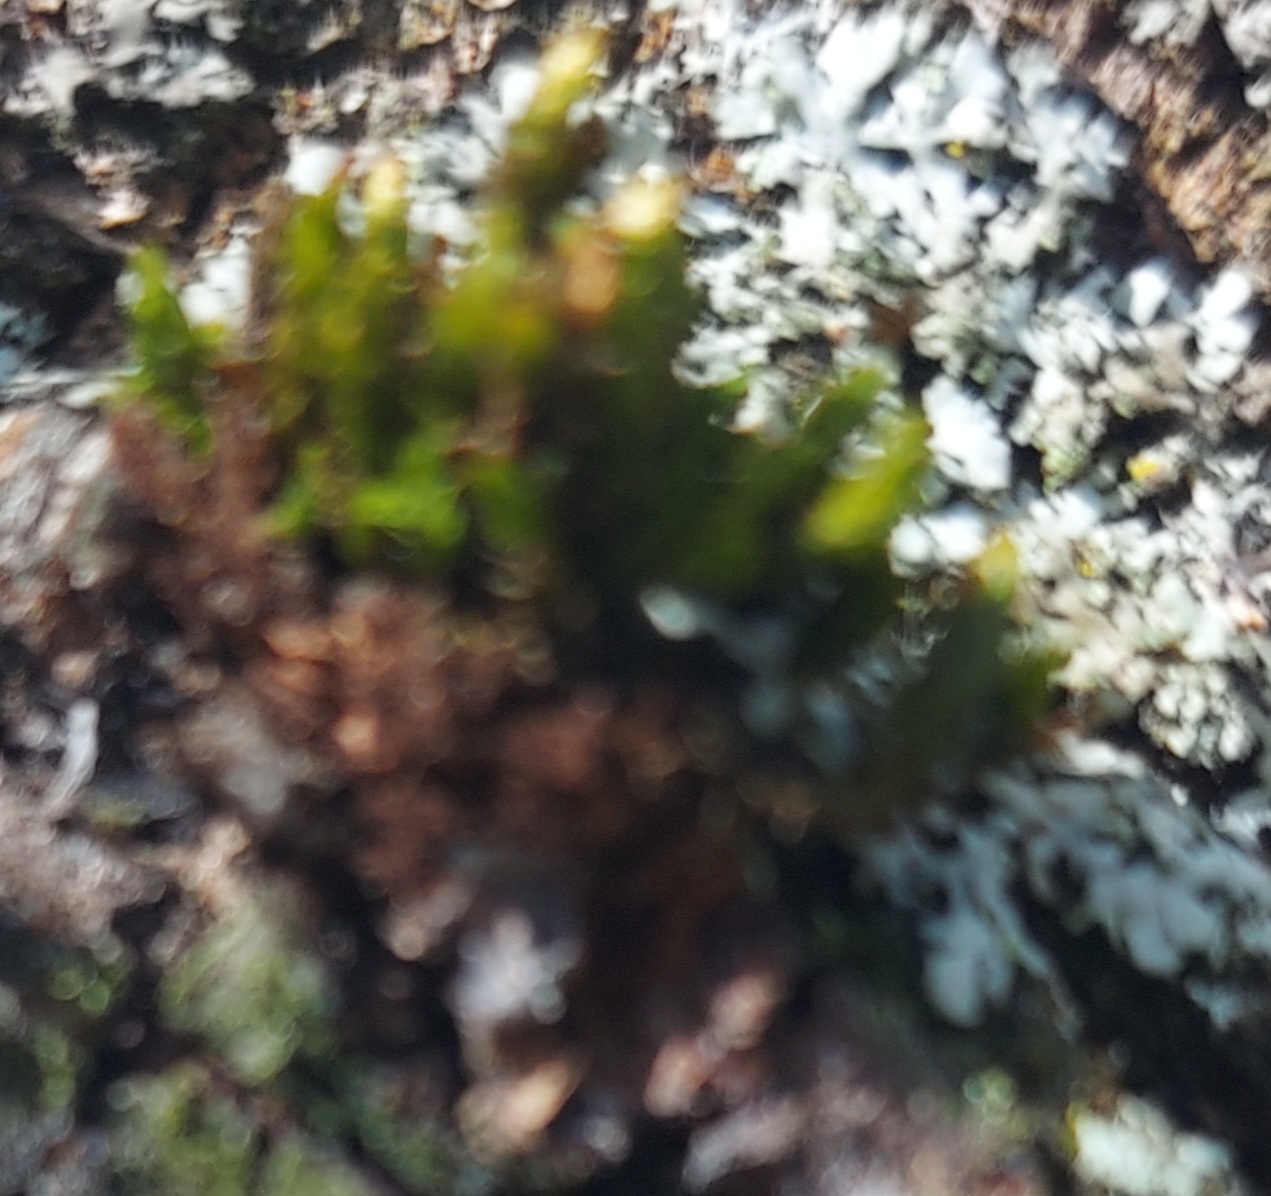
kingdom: Plantae
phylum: Bryophyta
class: Bryopsida
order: Orthotrichales
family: Orthotrichaceae
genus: Lewinskya
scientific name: Lewinskya affinis
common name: Almindelig furehætte
